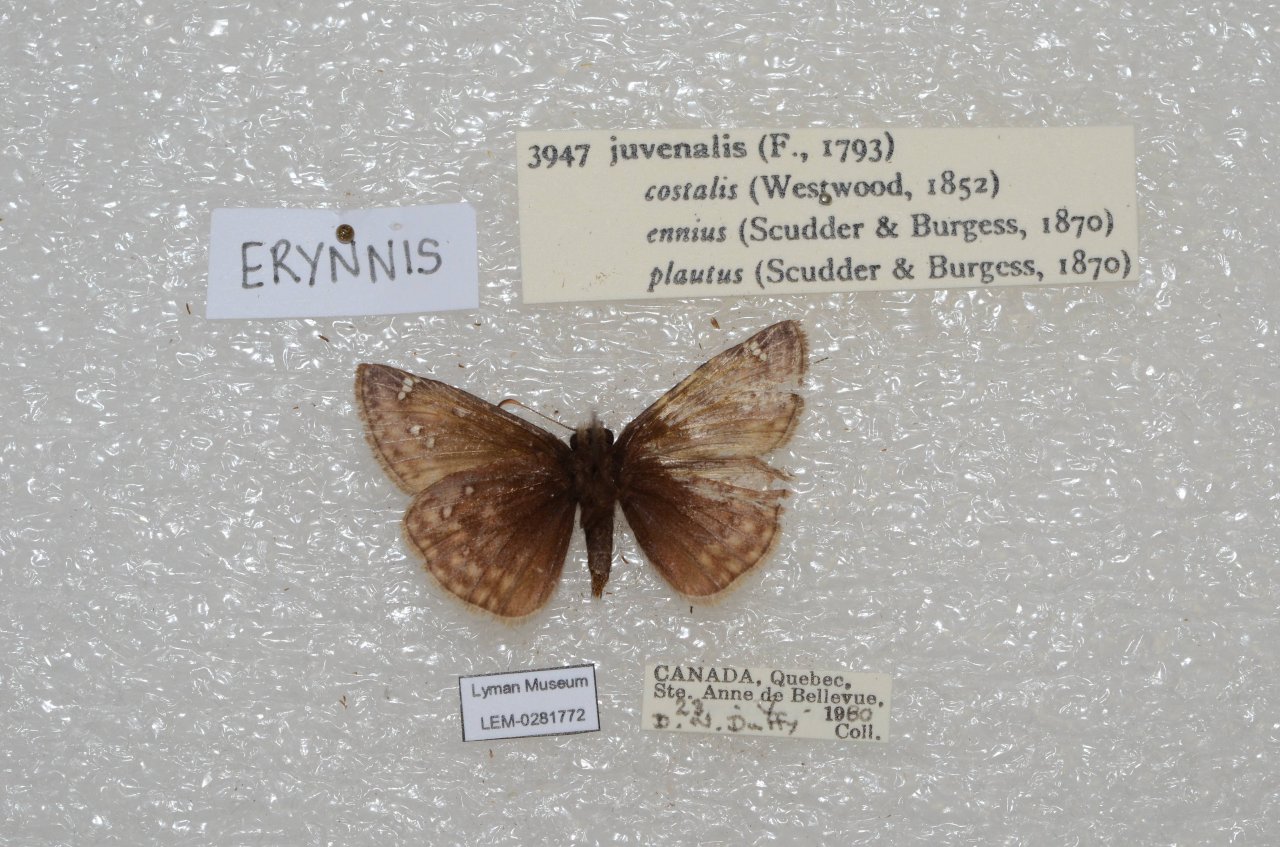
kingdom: Animalia
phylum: Arthropoda
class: Insecta
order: Lepidoptera
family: Hesperiidae
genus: Gesta
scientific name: Gesta
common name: Juvenal's Duskywing
